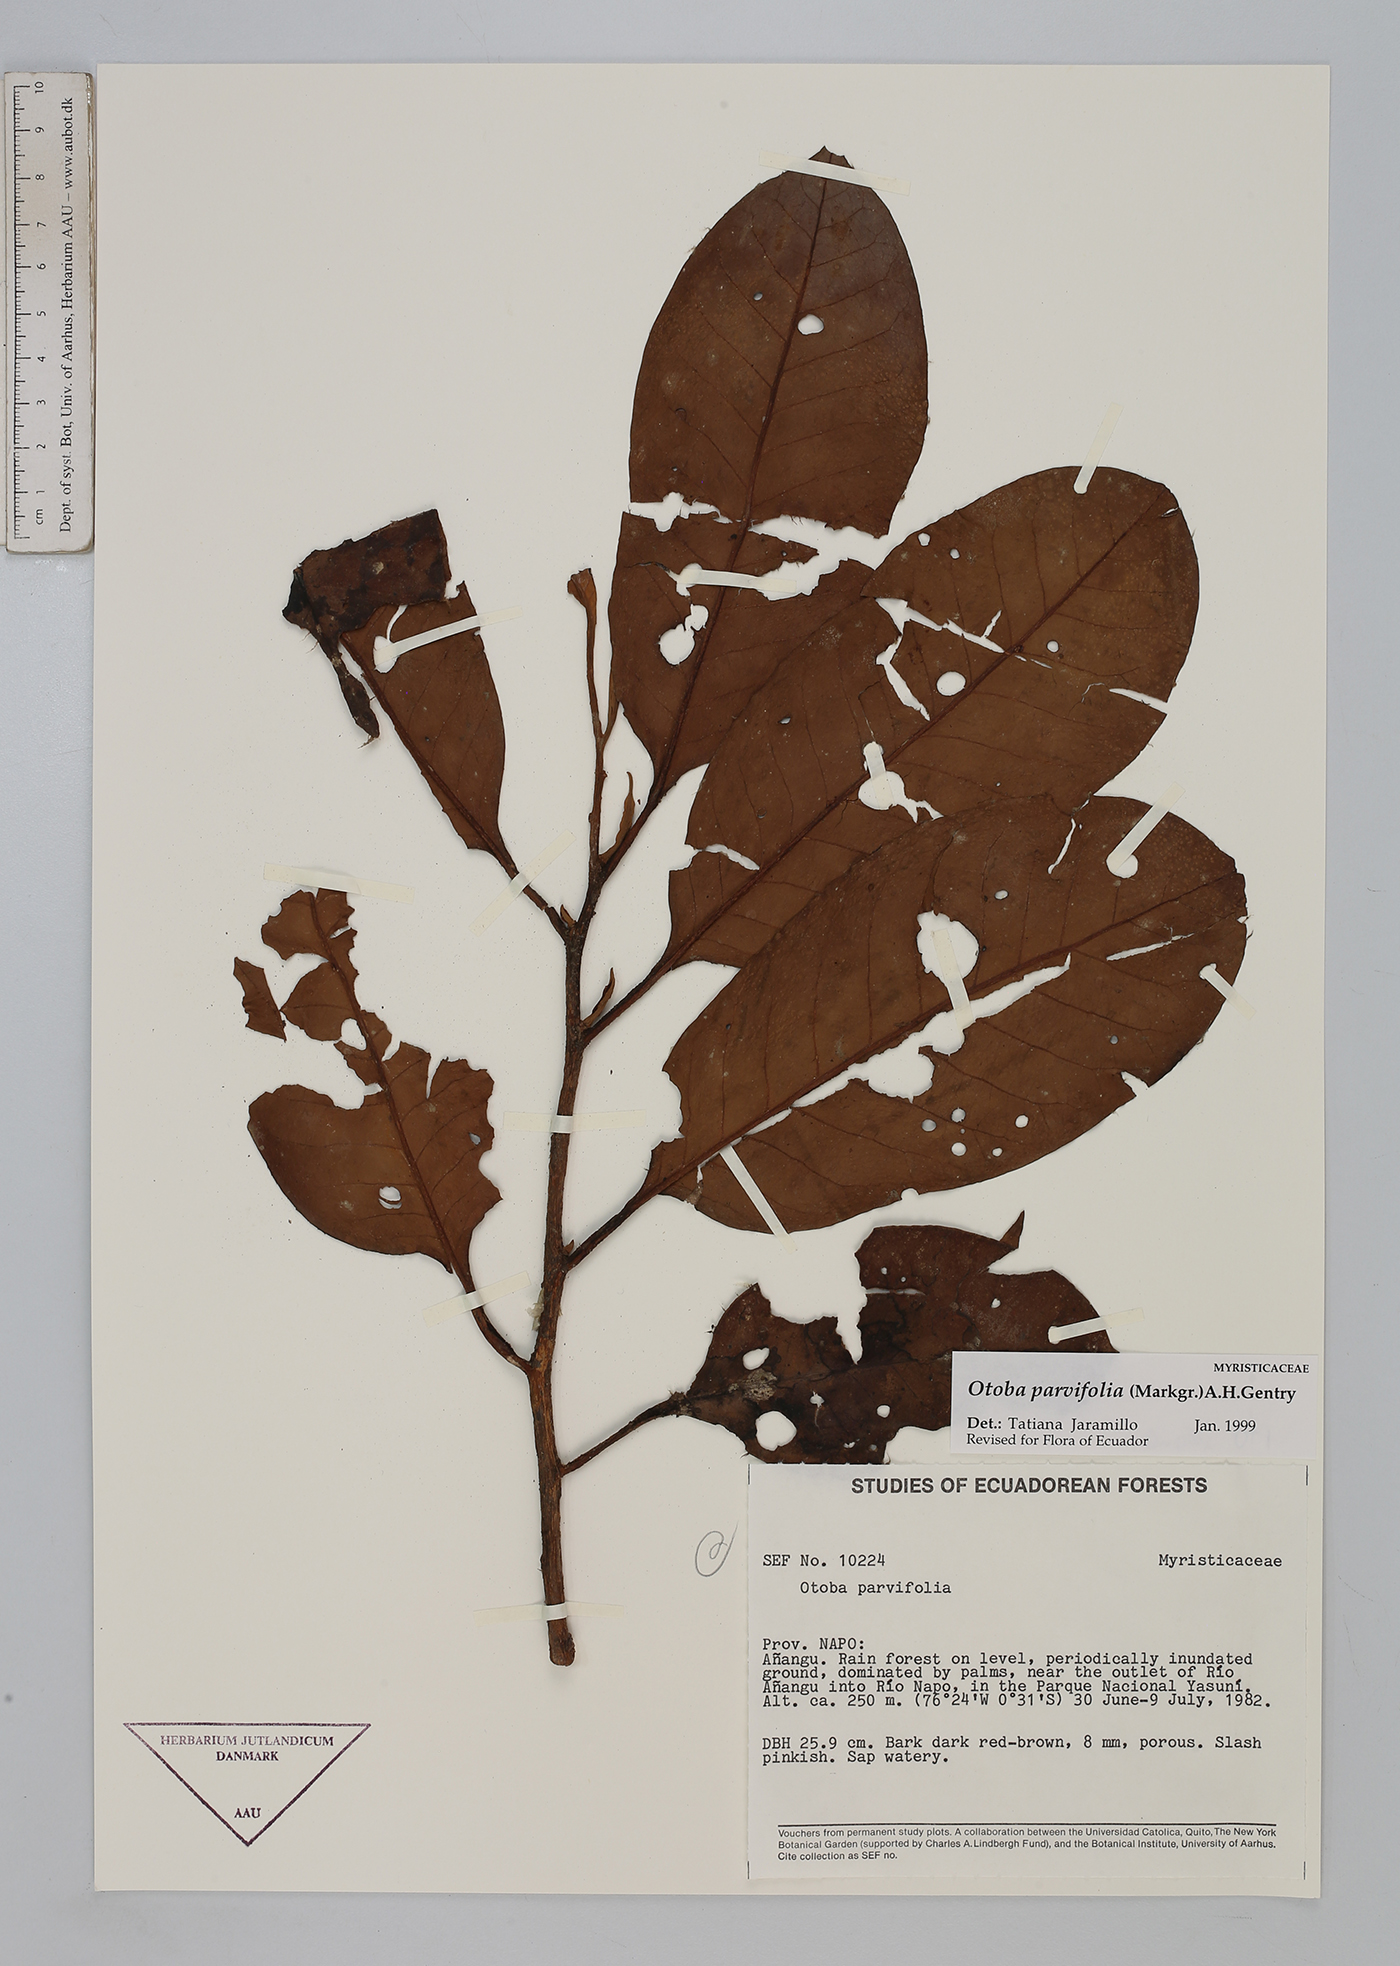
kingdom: Plantae
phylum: Tracheophyta
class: Magnoliopsida
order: Magnoliales
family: Myristicaceae
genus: Otoba
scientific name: Otoba parvifolia
